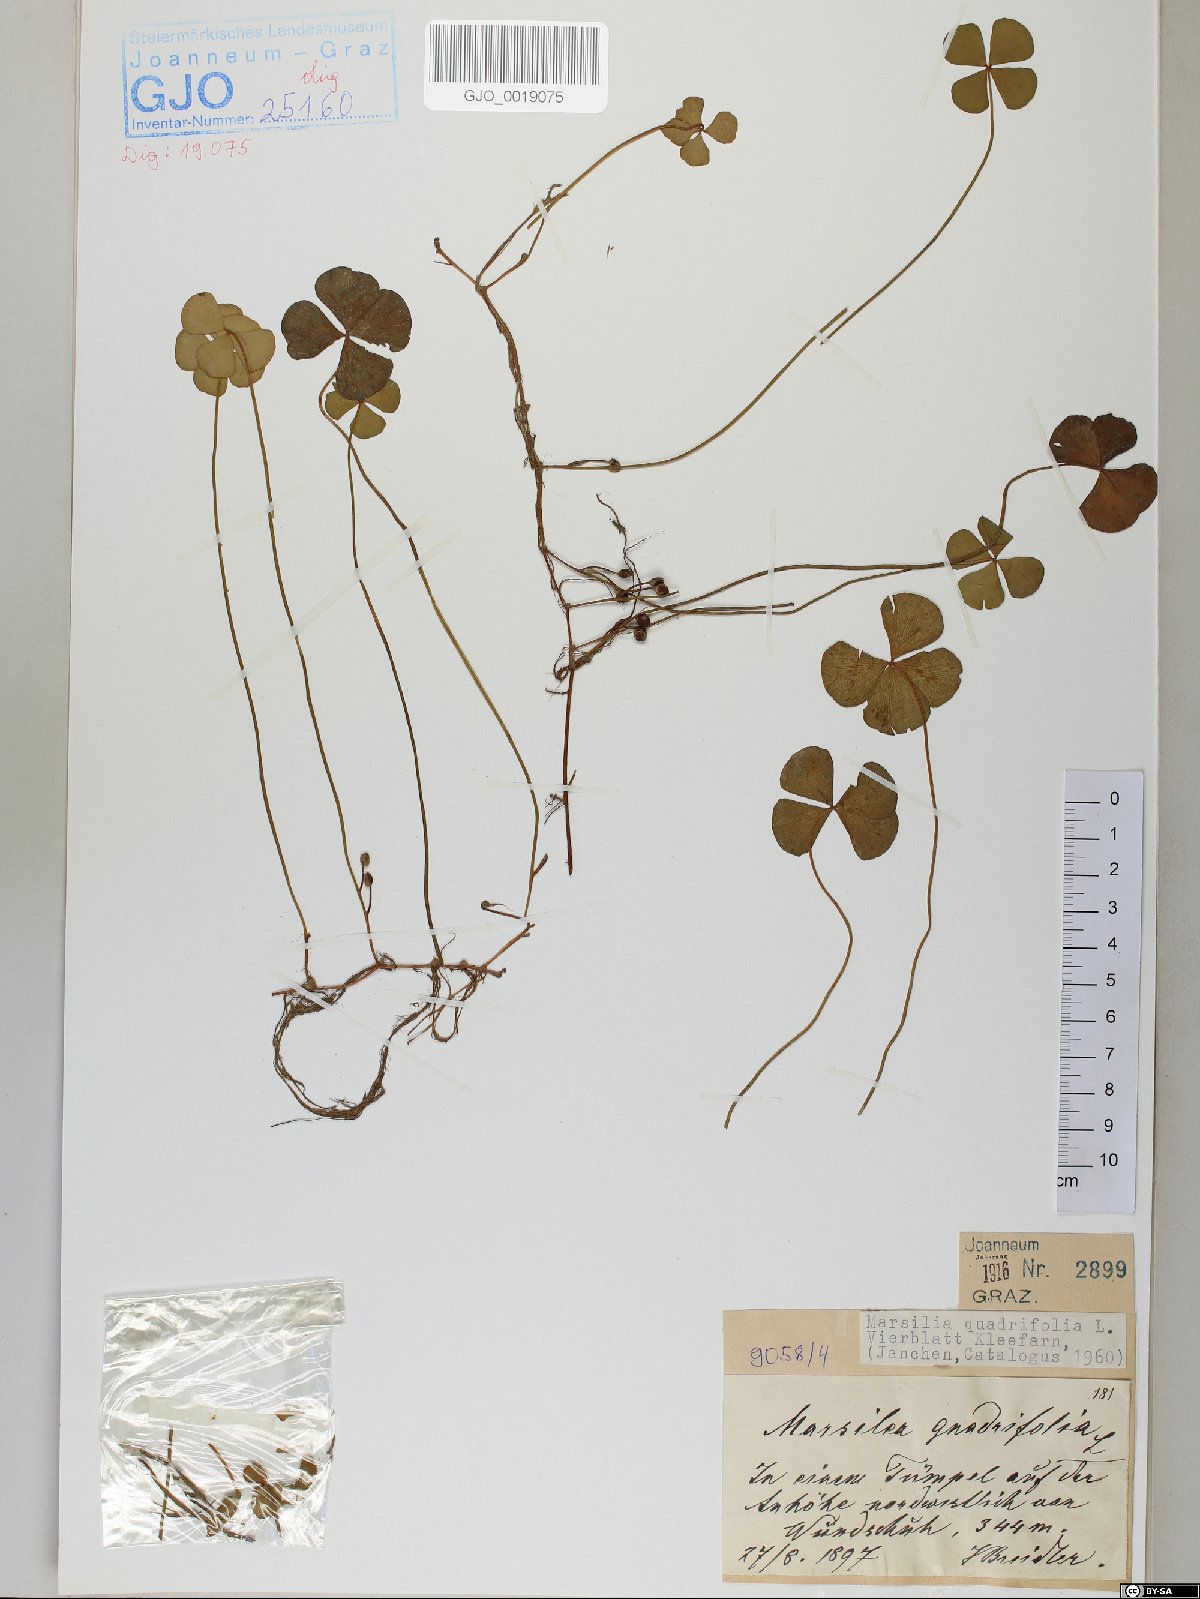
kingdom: Plantae
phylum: Tracheophyta
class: Polypodiopsida
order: Salviniales
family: Marsileaceae
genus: Marsilea
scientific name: Marsilea quadrifolia
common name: Water shamrock
